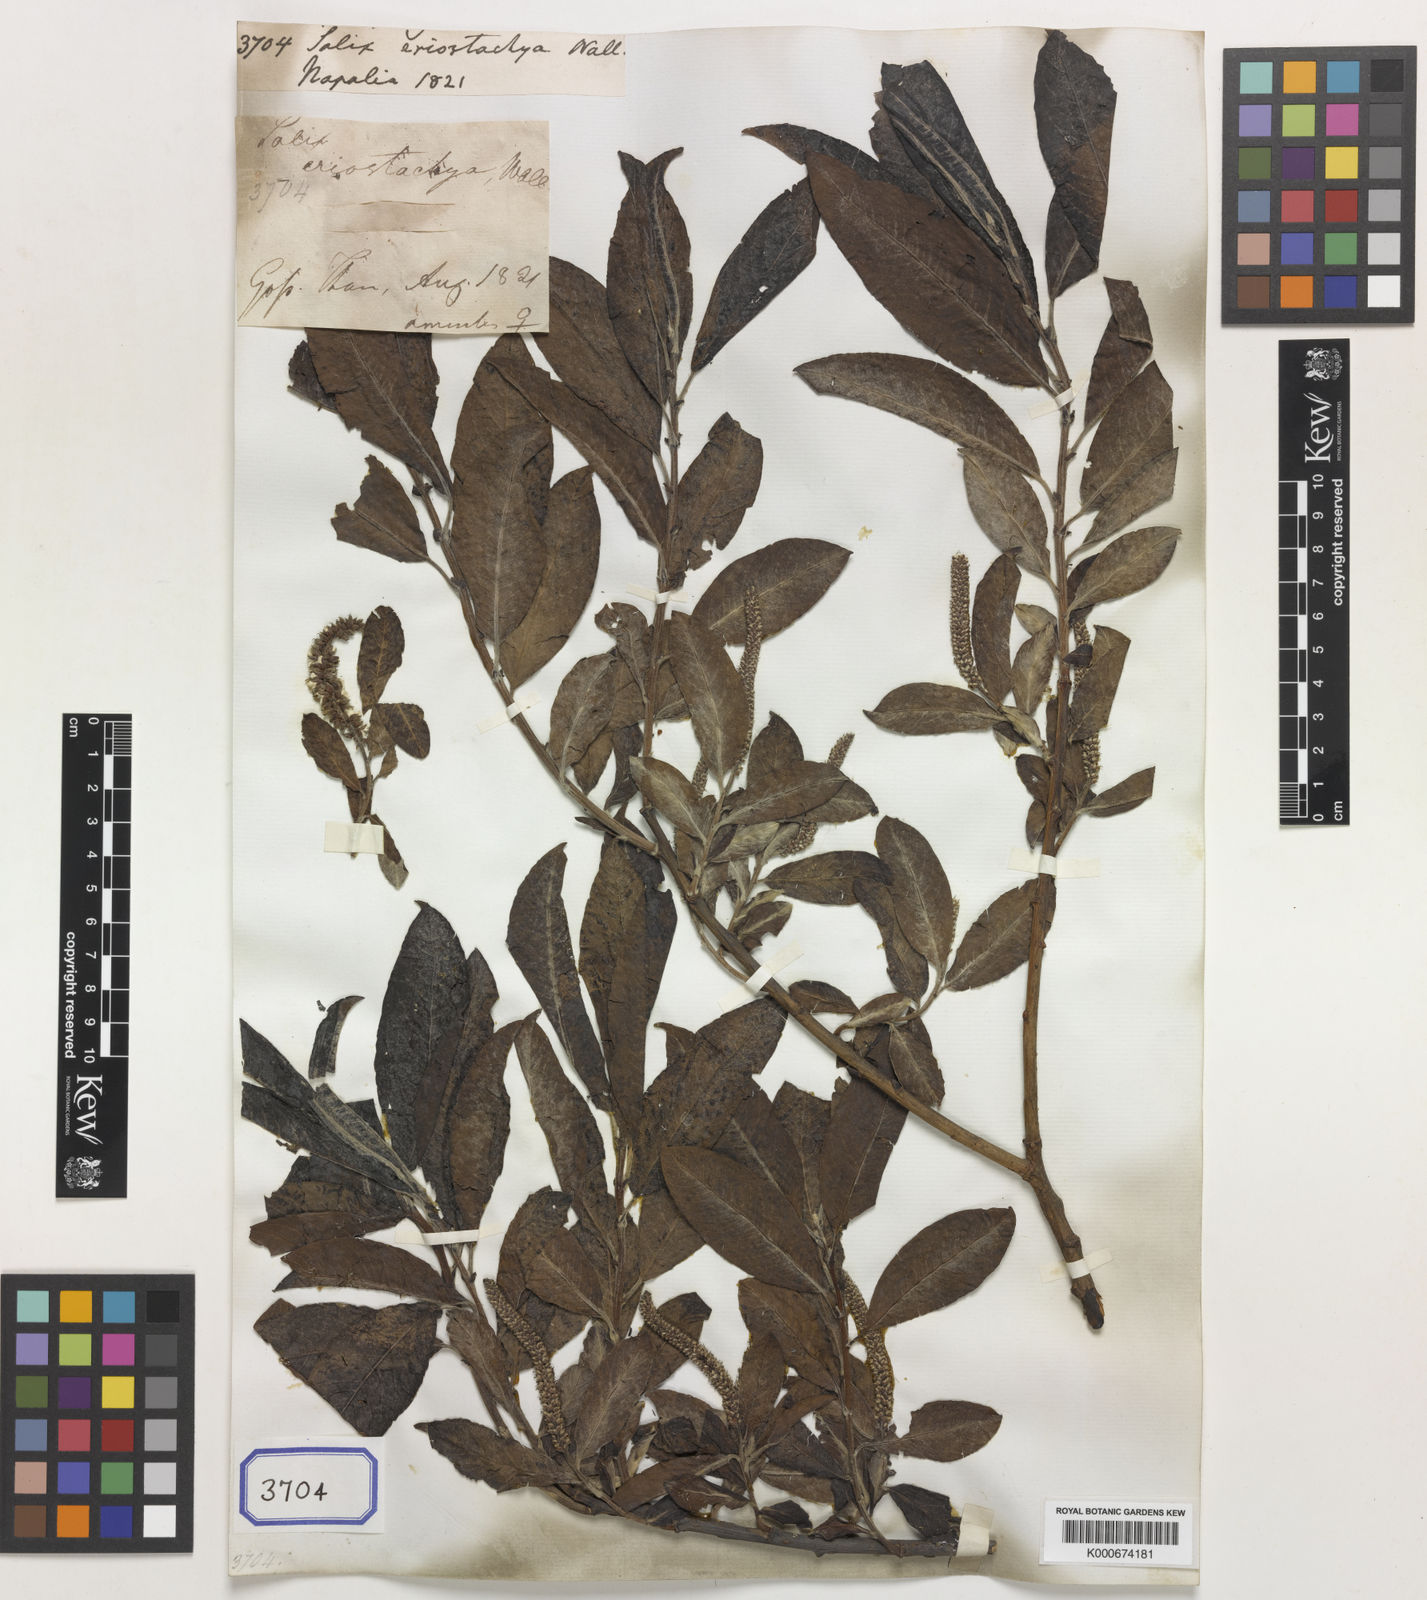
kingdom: Plantae
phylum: Tracheophyta
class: Magnoliopsida
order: Malpighiales
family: Salicaceae
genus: Salix
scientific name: Salix eriostachya
